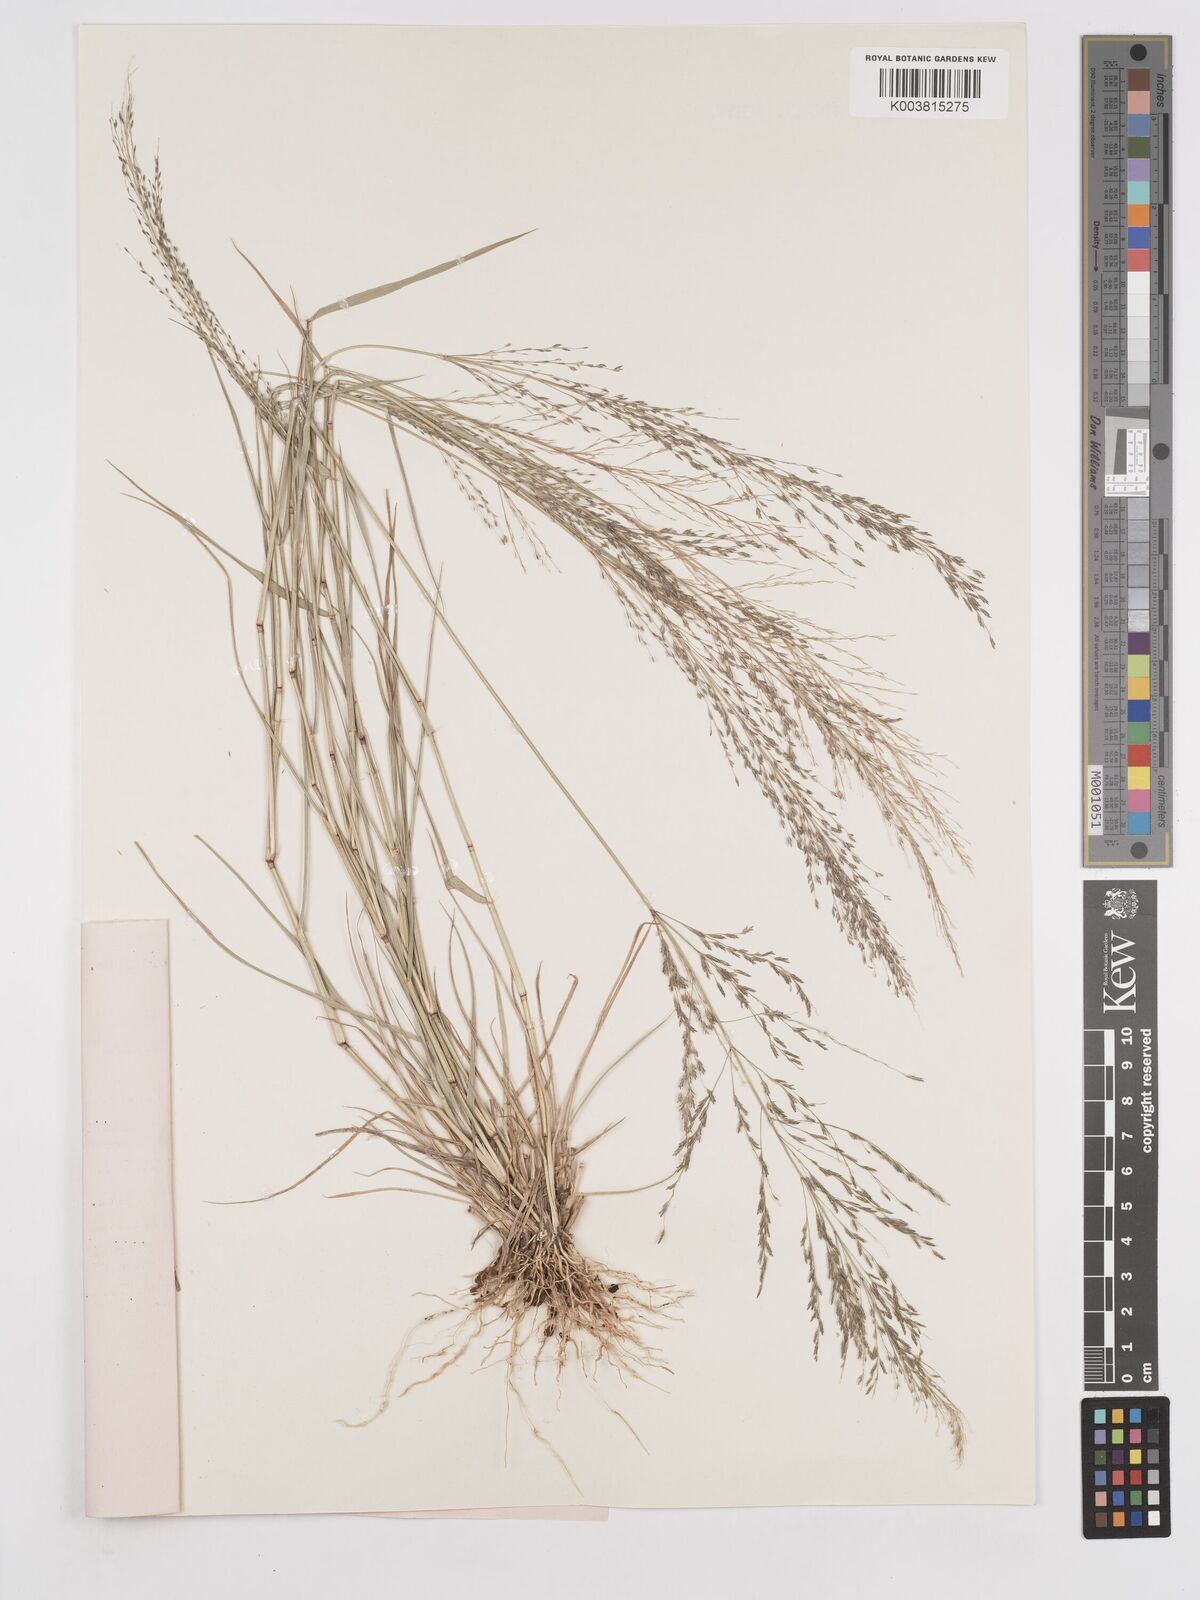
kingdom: Plantae
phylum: Tracheophyta
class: Liliopsida
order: Poales
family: Poaceae
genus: Eragrostis
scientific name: Eragrostis cylindriflora
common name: Cylinderflower lovegrass
